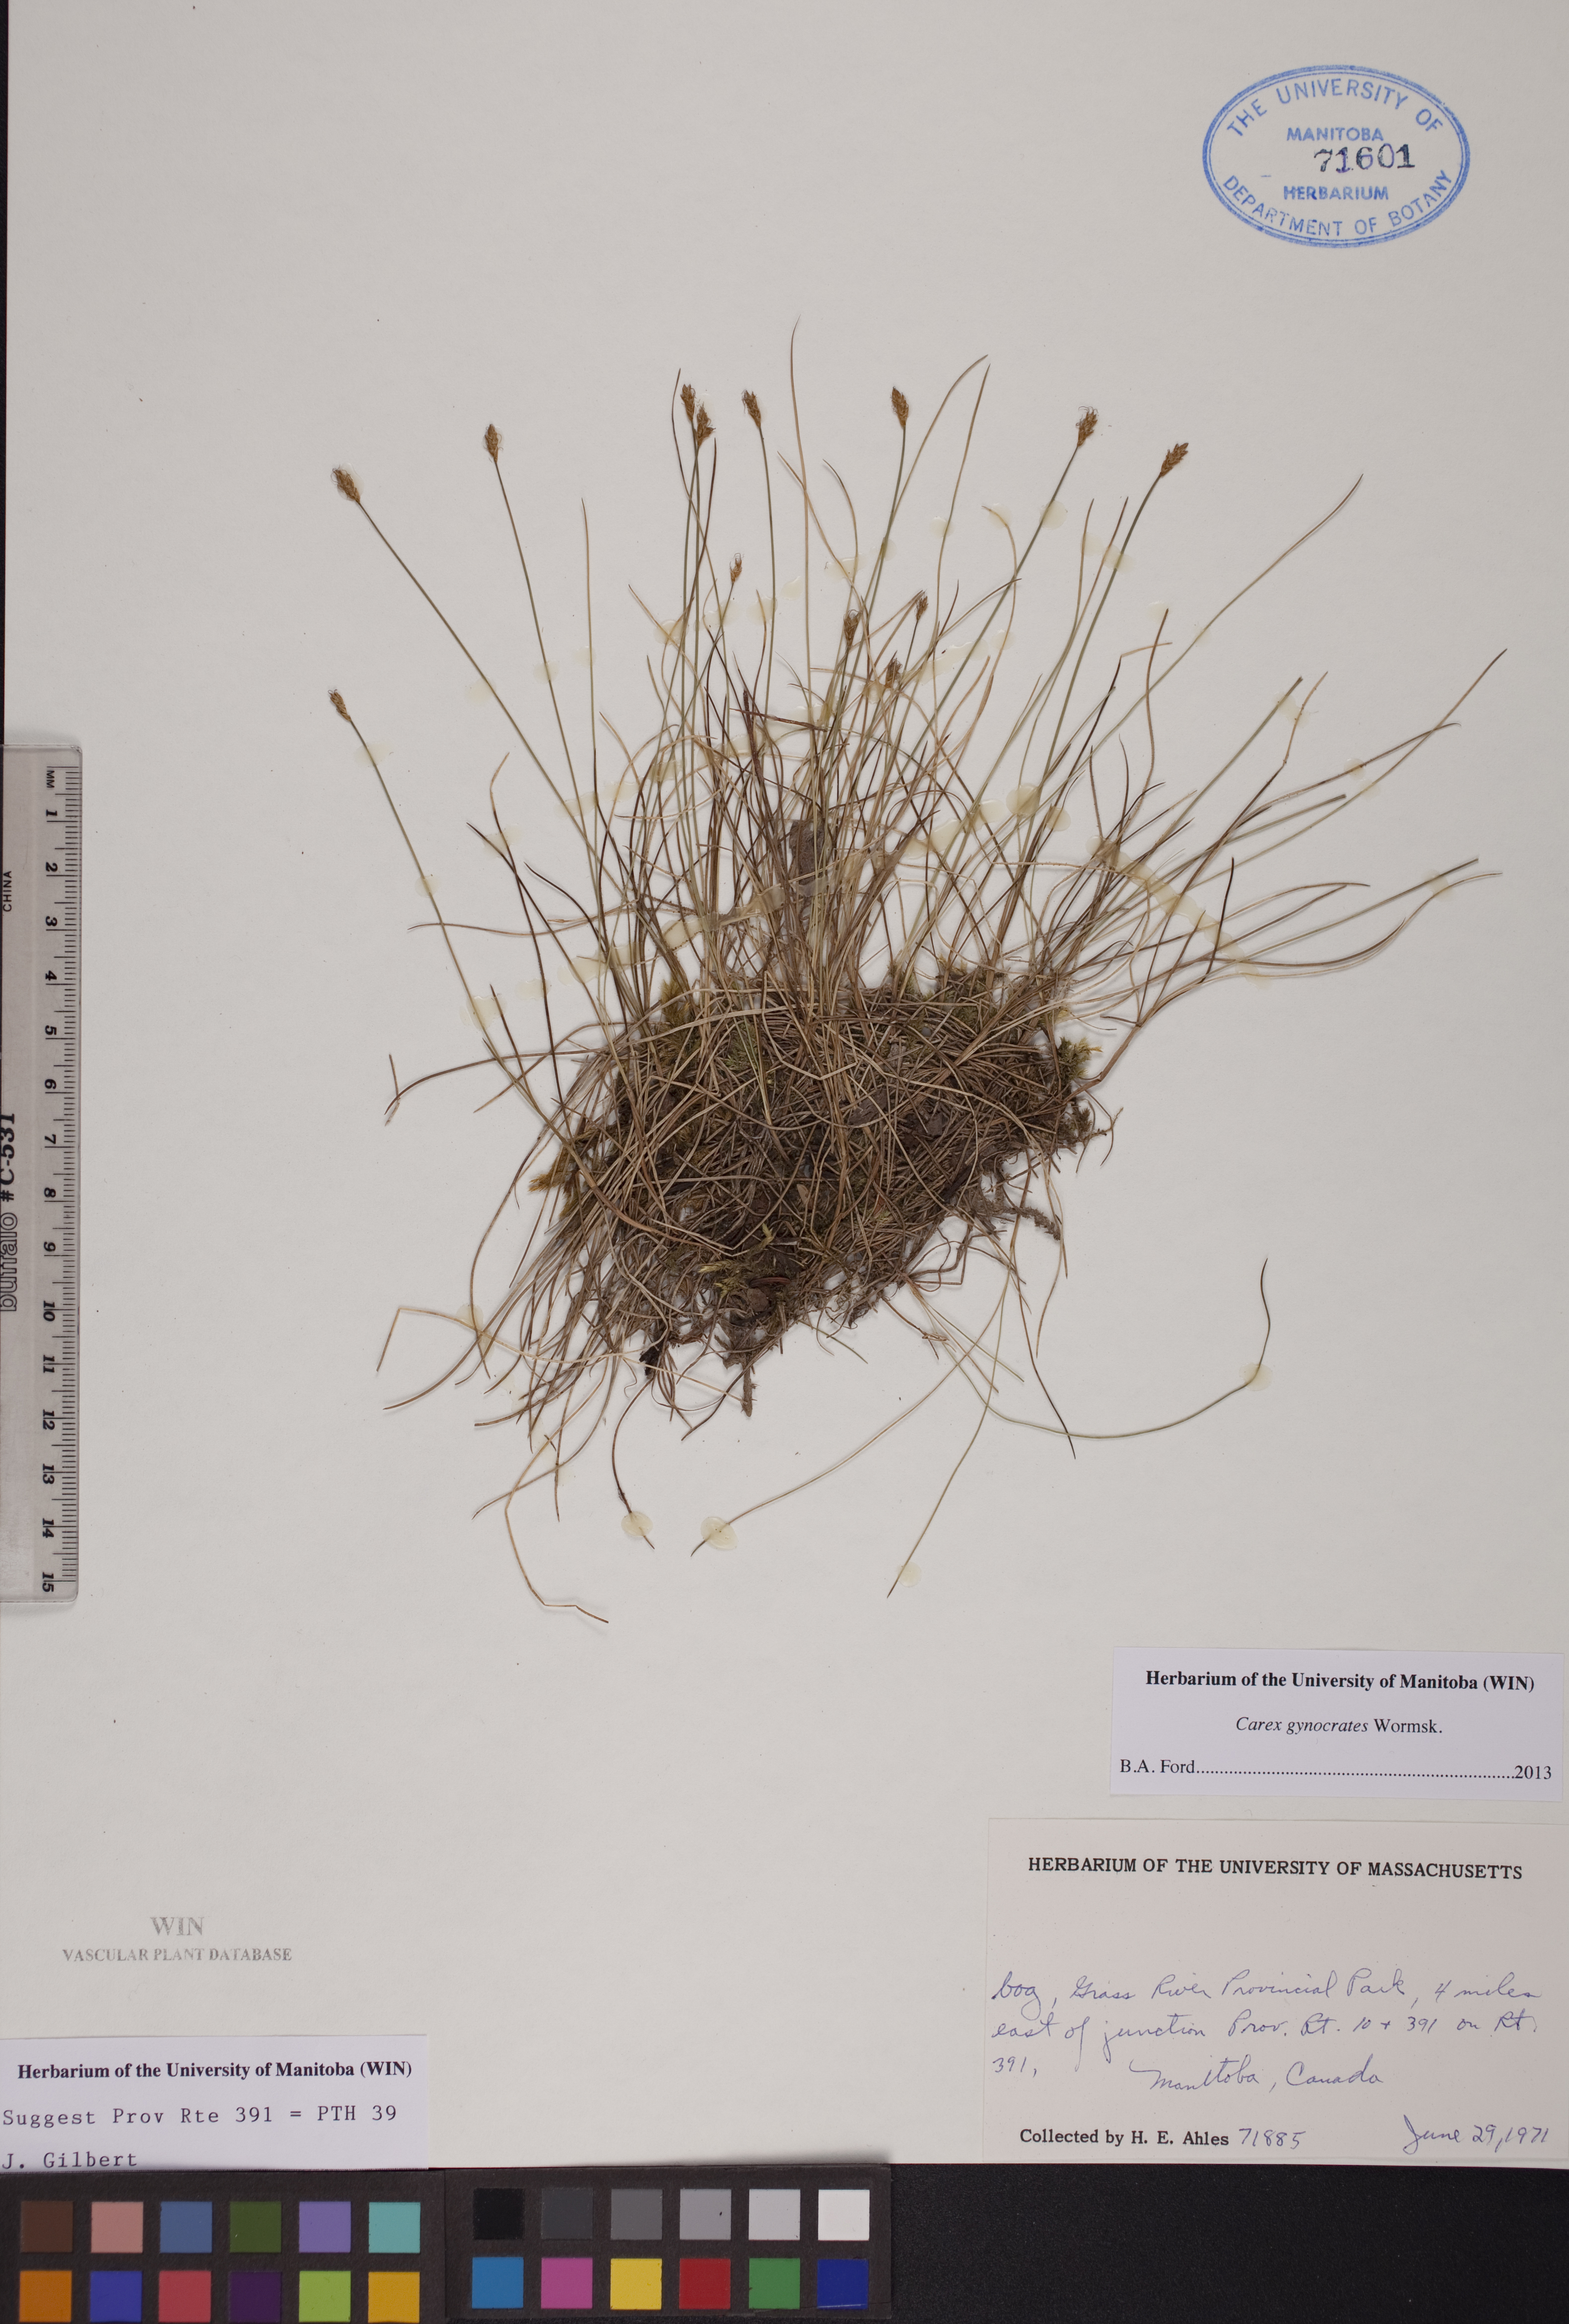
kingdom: Plantae
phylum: Tracheophyta
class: Liliopsida
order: Poales
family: Cyperaceae
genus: Carex
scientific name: Carex nardina
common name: Nard sedge
